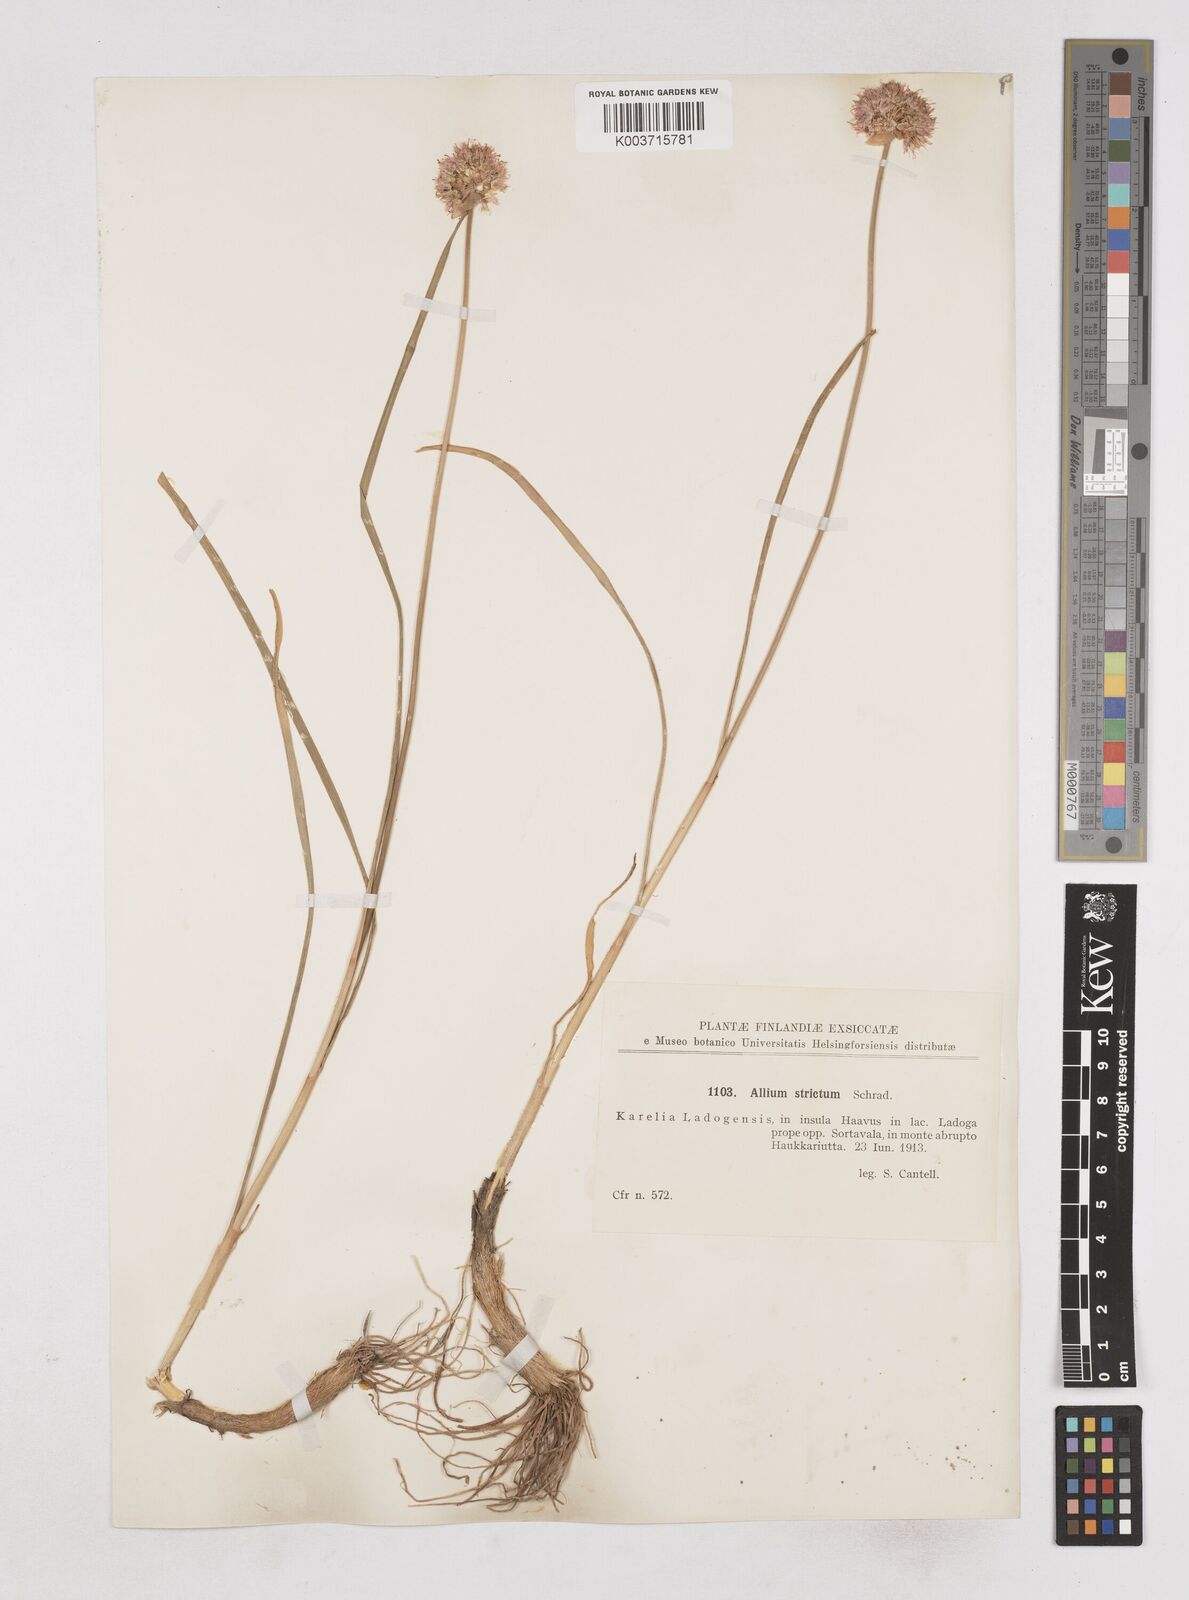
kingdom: Plantae
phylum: Tracheophyta
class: Liliopsida
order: Asparagales
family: Amaryllidaceae
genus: Allium
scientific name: Allium strictum
